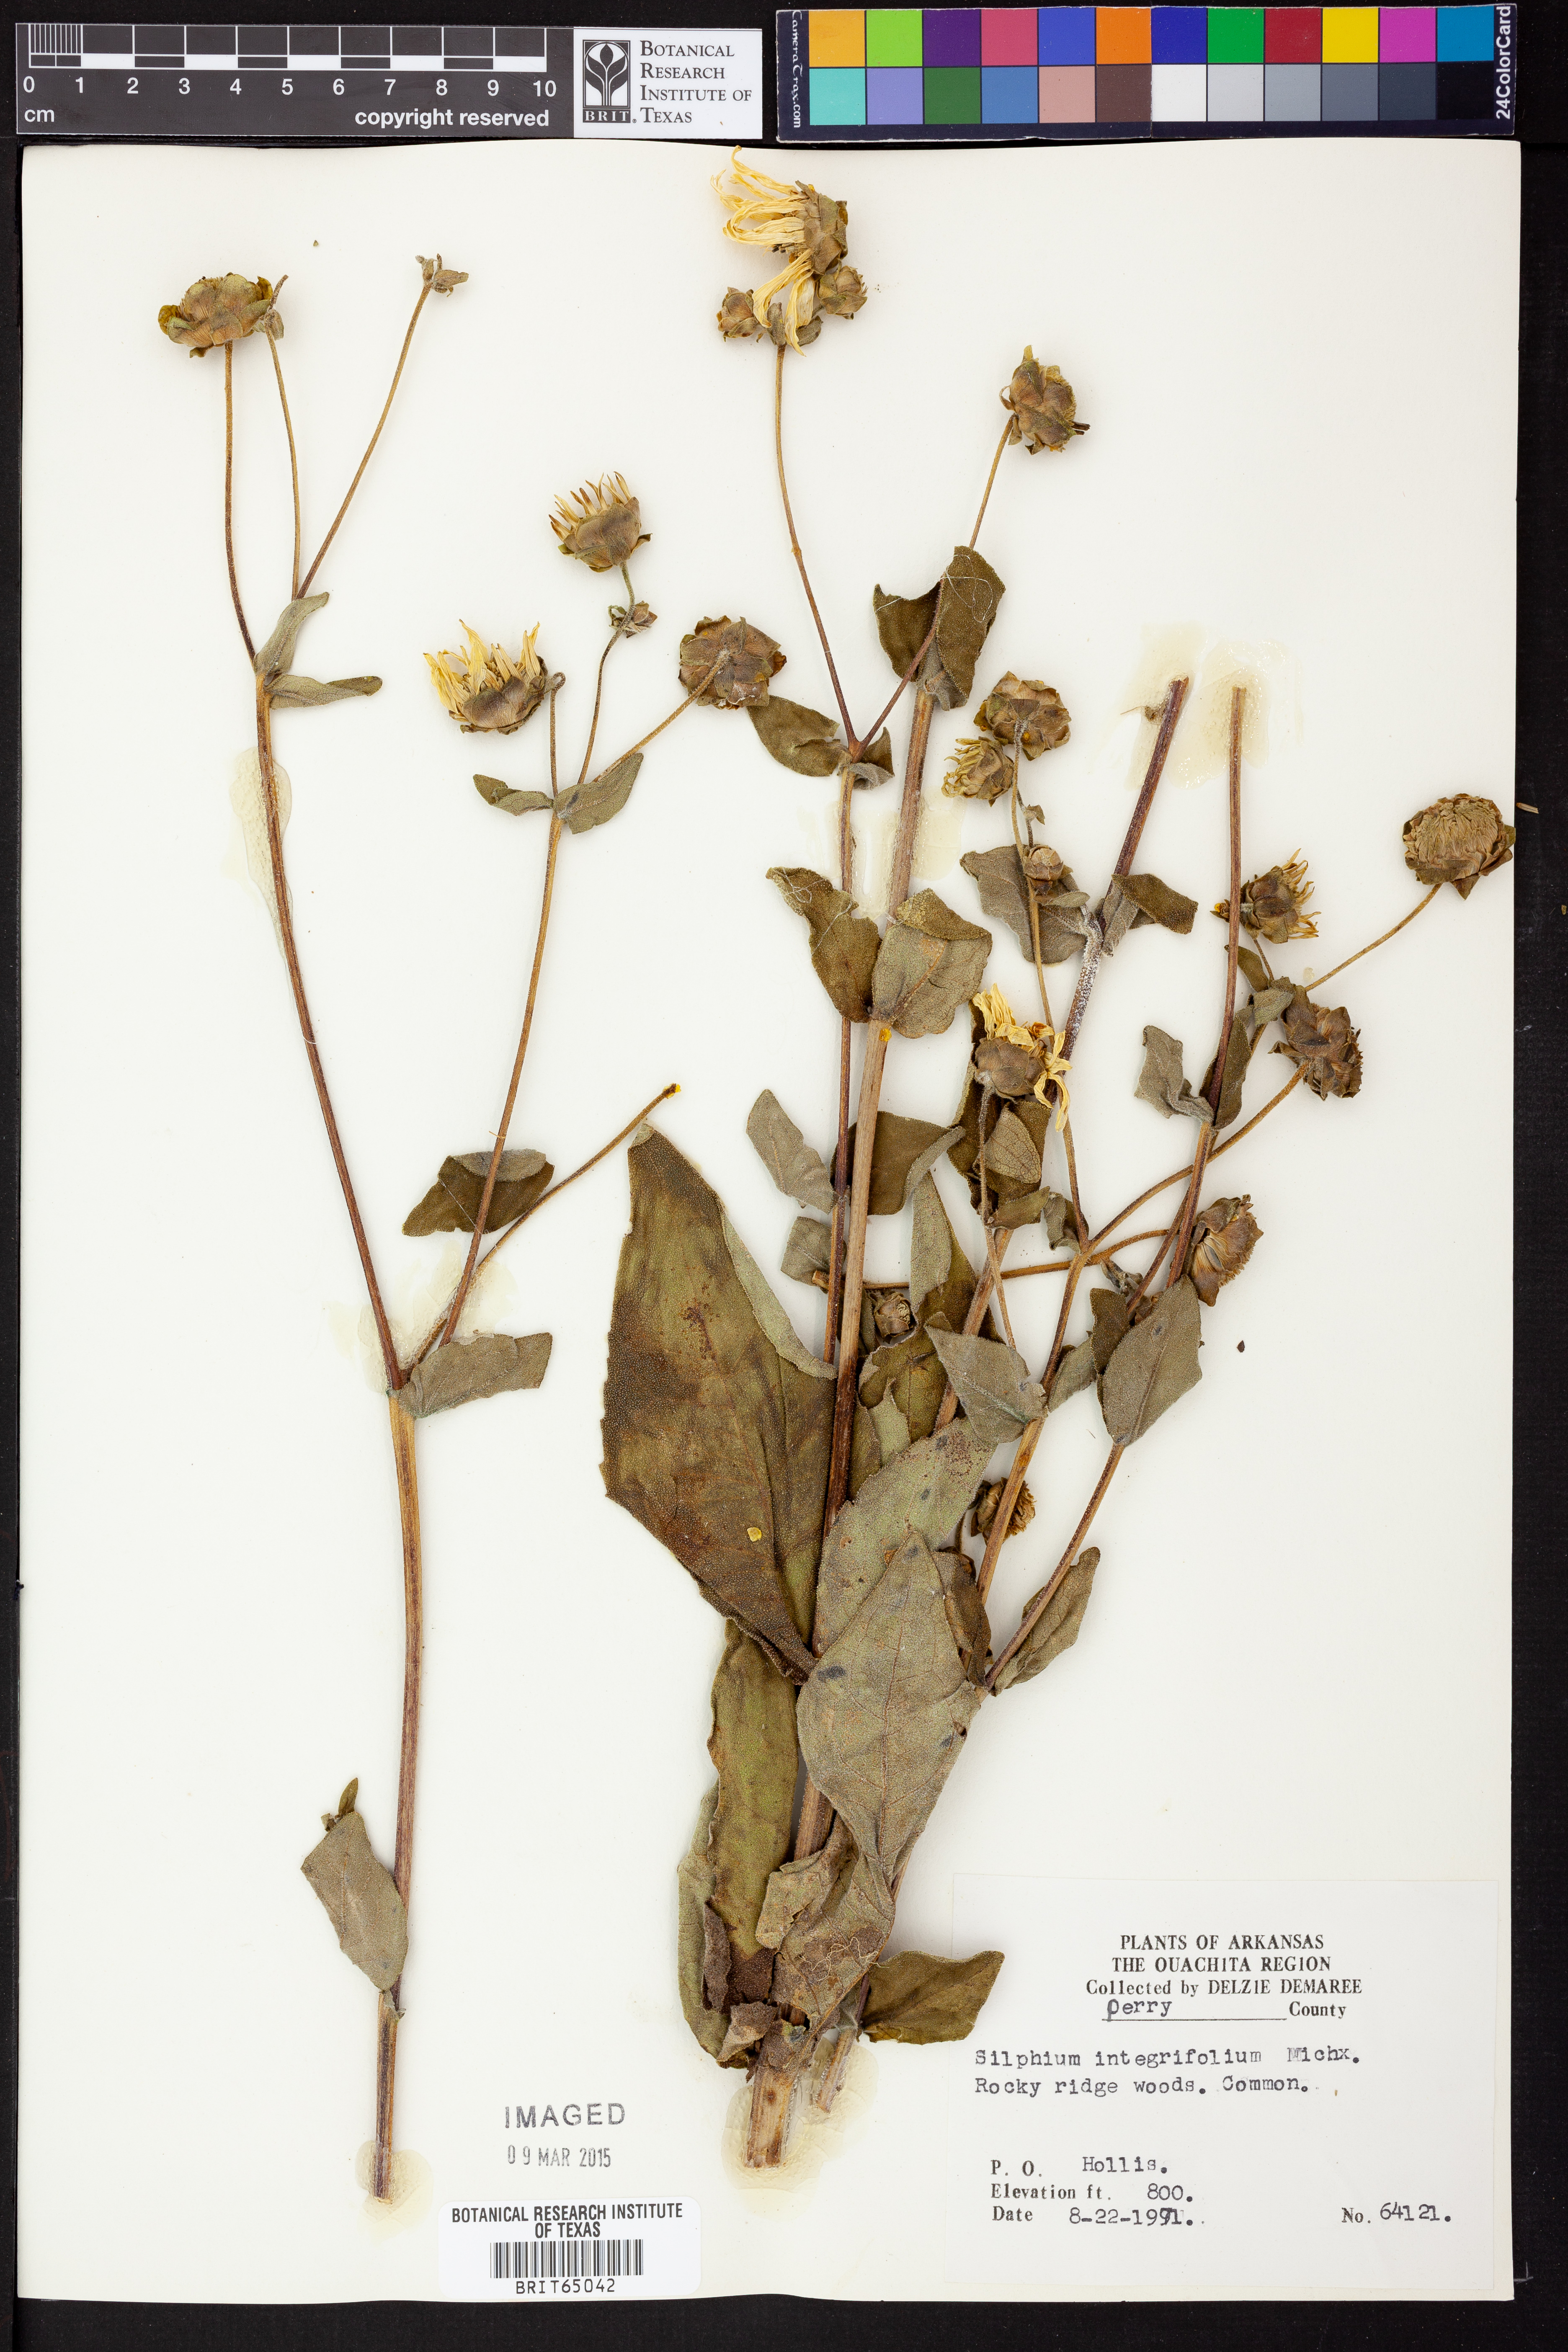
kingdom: Plantae
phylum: Tracheophyta
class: Magnoliopsida
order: Asterales
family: Asteraceae
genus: Silphium
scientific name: Silphium integrifolium
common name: Whole-leaf rosinweed
